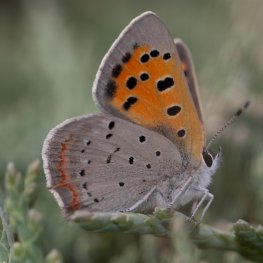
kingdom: Animalia
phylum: Arthropoda
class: Insecta
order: Lepidoptera
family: Lycaenidae
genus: Lycaena
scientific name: Lycaena phlaeas
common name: American Copper
